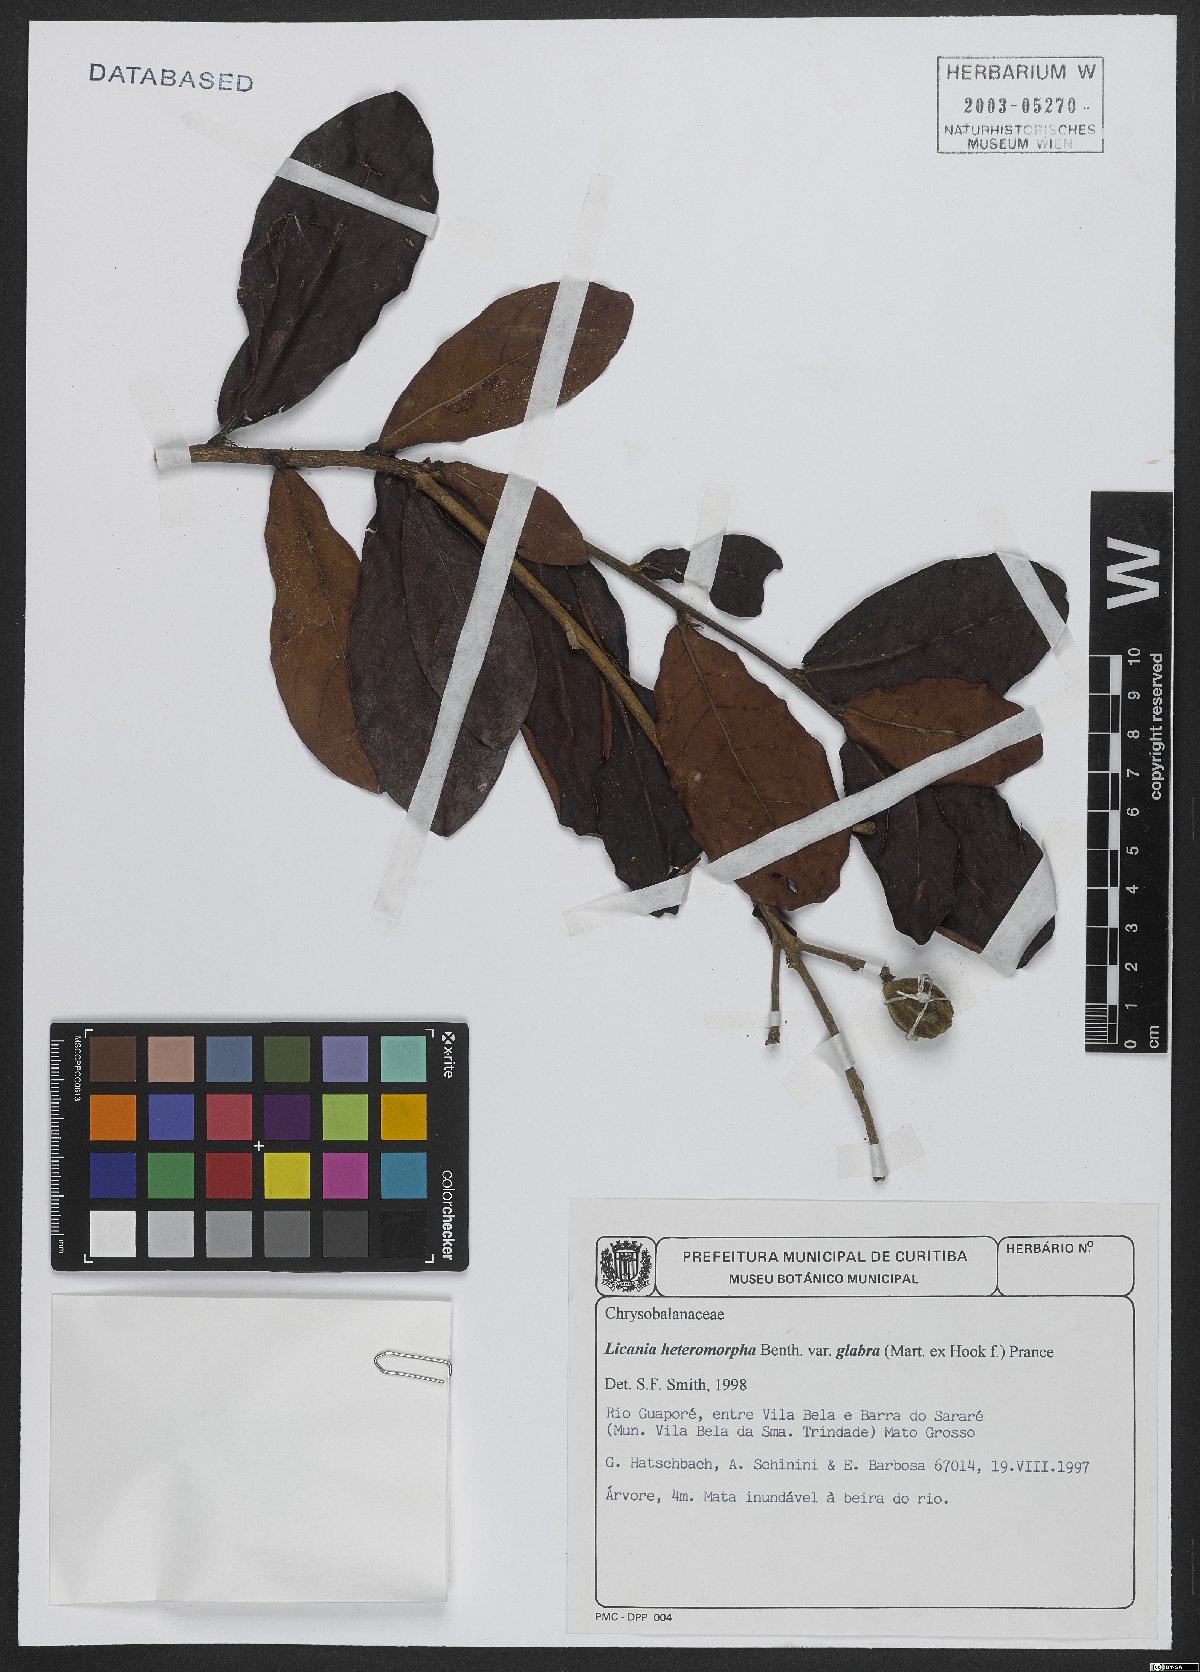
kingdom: Plantae
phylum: Tracheophyta
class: Magnoliopsida
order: Malpighiales
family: Chrysobalanaceae
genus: Licania
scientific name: Licania heteromorpha
